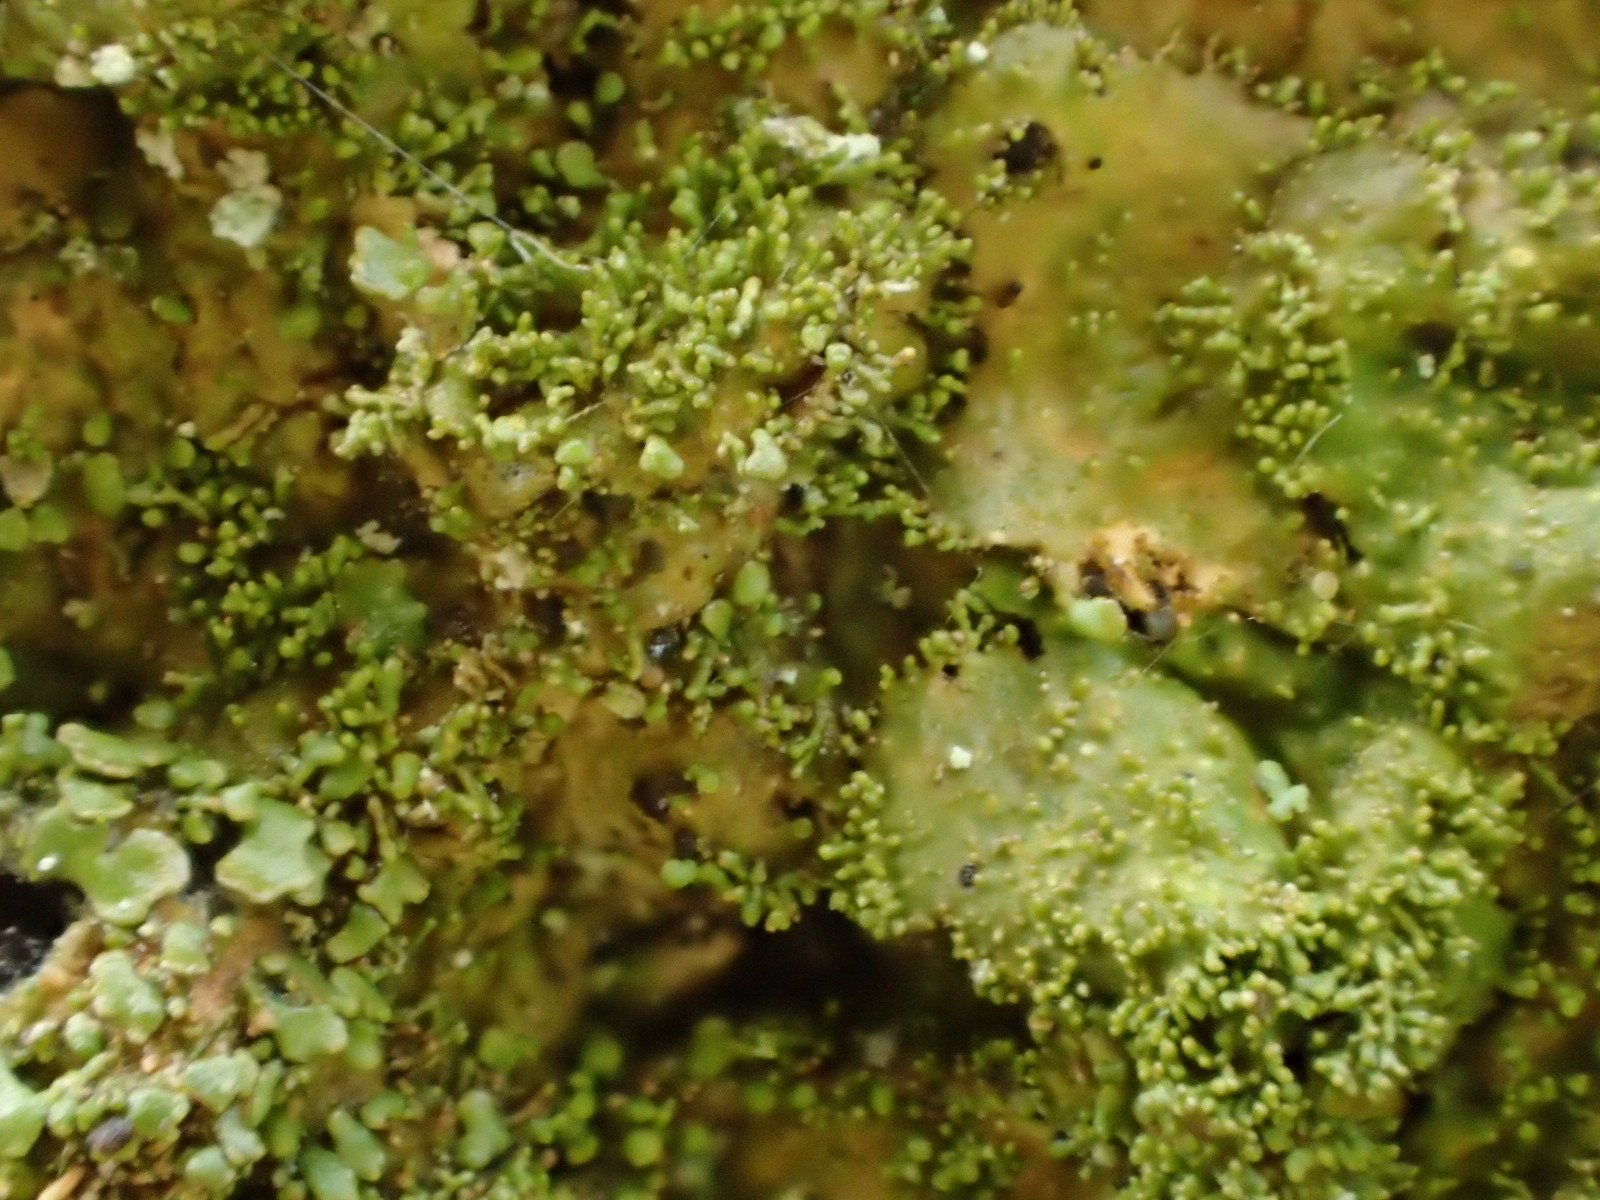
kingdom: Fungi
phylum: Ascomycota
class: Lecanoromycetes
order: Lecanorales
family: Parmeliaceae
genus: Melanohalea
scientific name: Melanohalea exasperatula
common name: kølle-skållav
